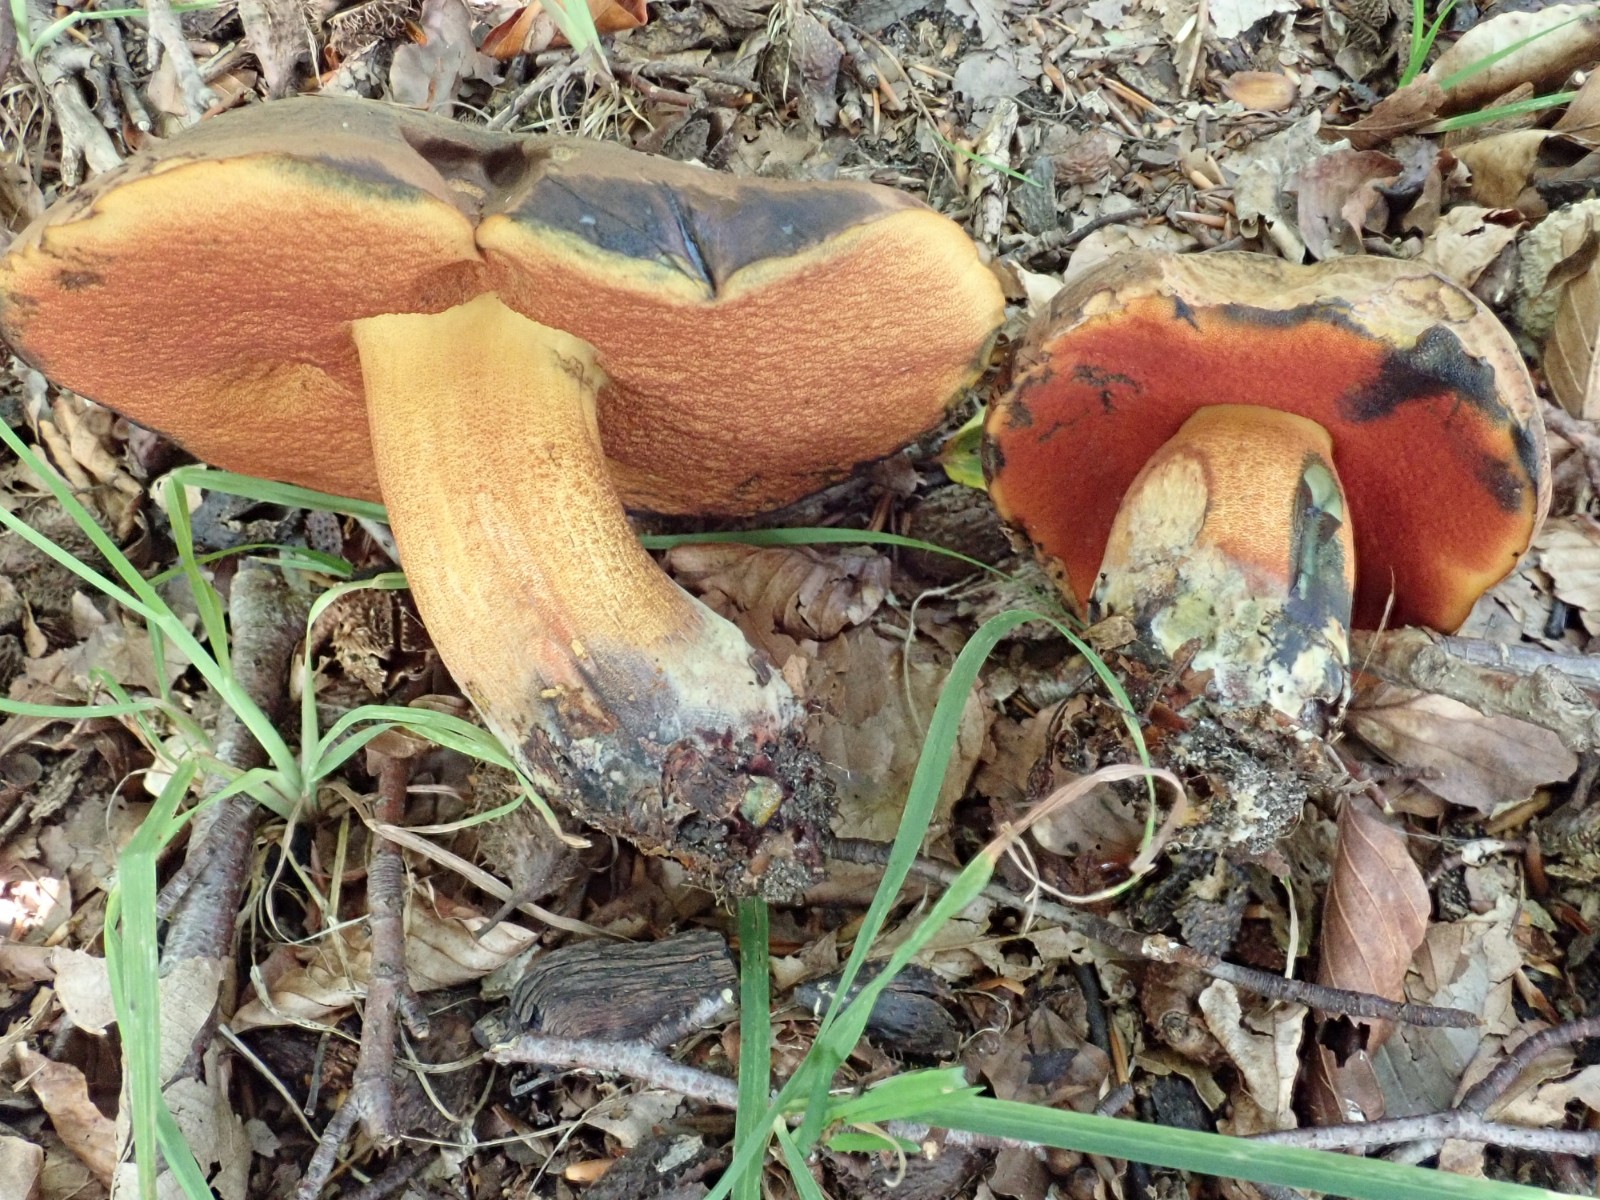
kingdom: Fungi
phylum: Basidiomycota
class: Agaricomycetes
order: Boletales
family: Boletaceae
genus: Neoboletus
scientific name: Neoboletus erythropus
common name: punktstokket indigorørhat
